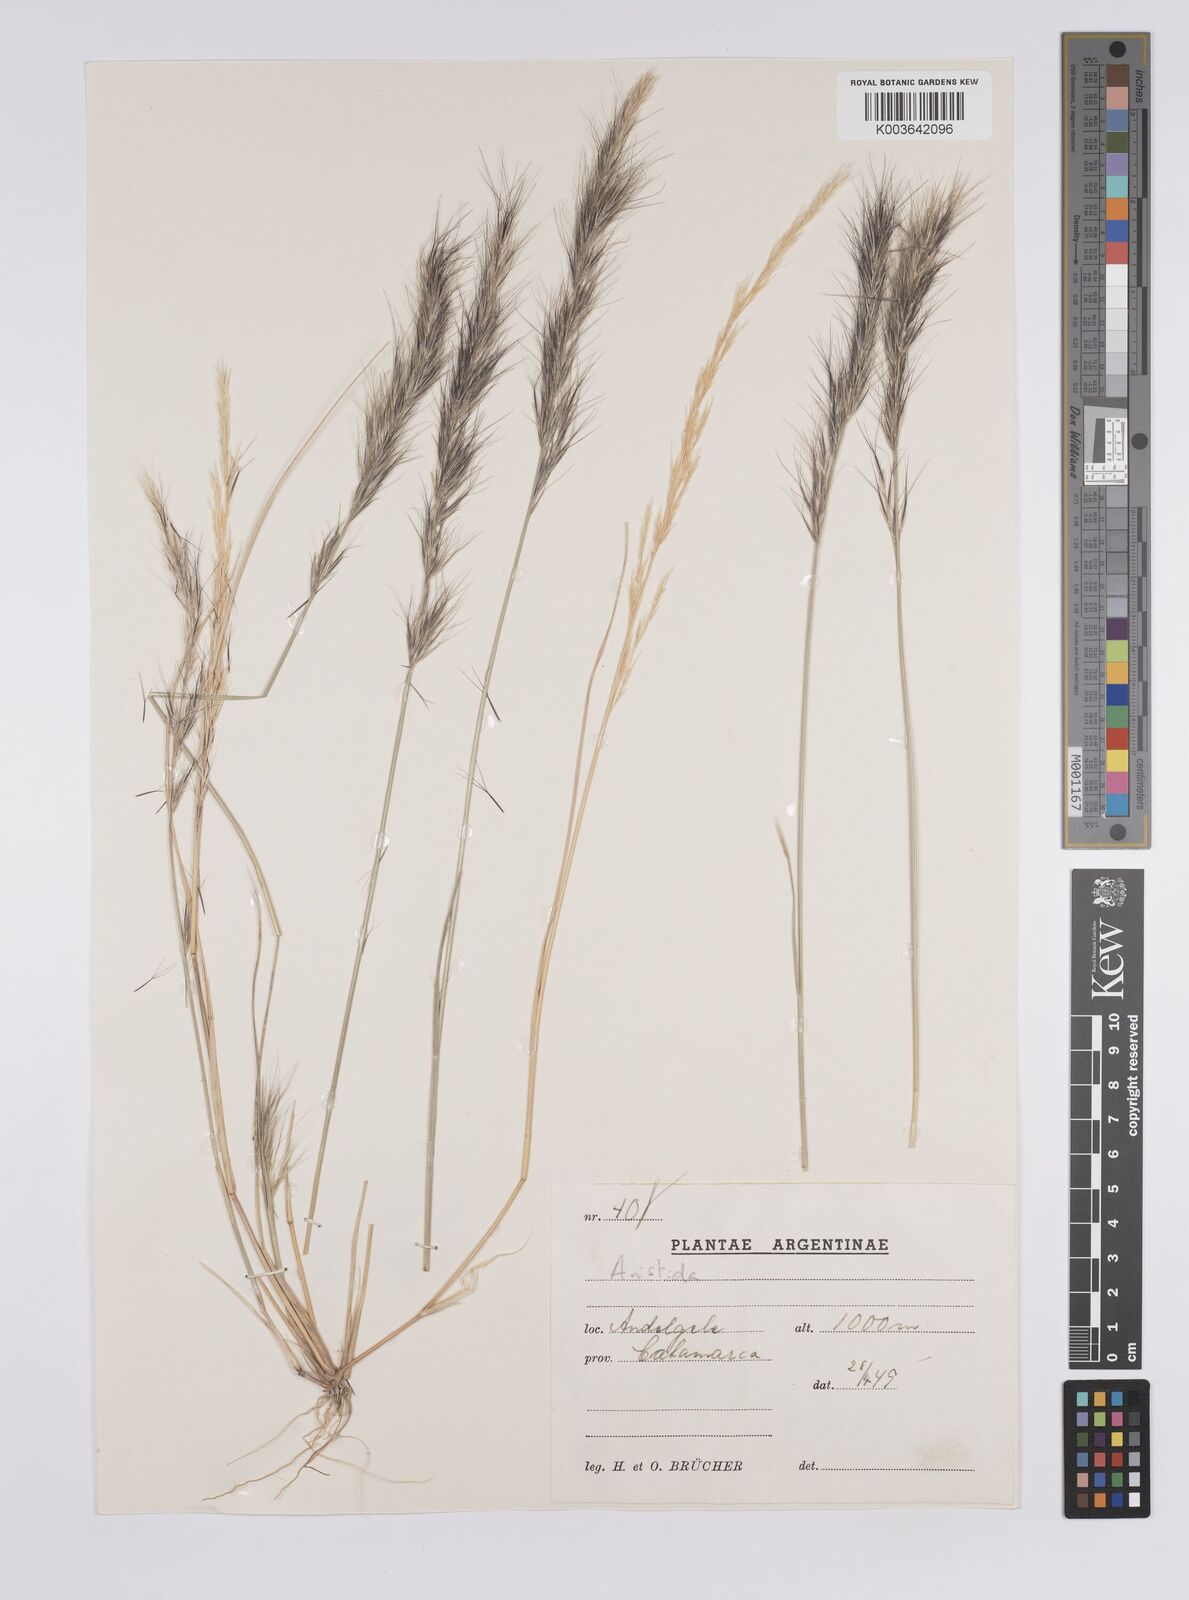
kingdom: Plantae
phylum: Tracheophyta
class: Liliopsida
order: Poales
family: Poaceae
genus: Aristida
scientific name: Aristida adscensionis
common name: Sixweeks threeawn
